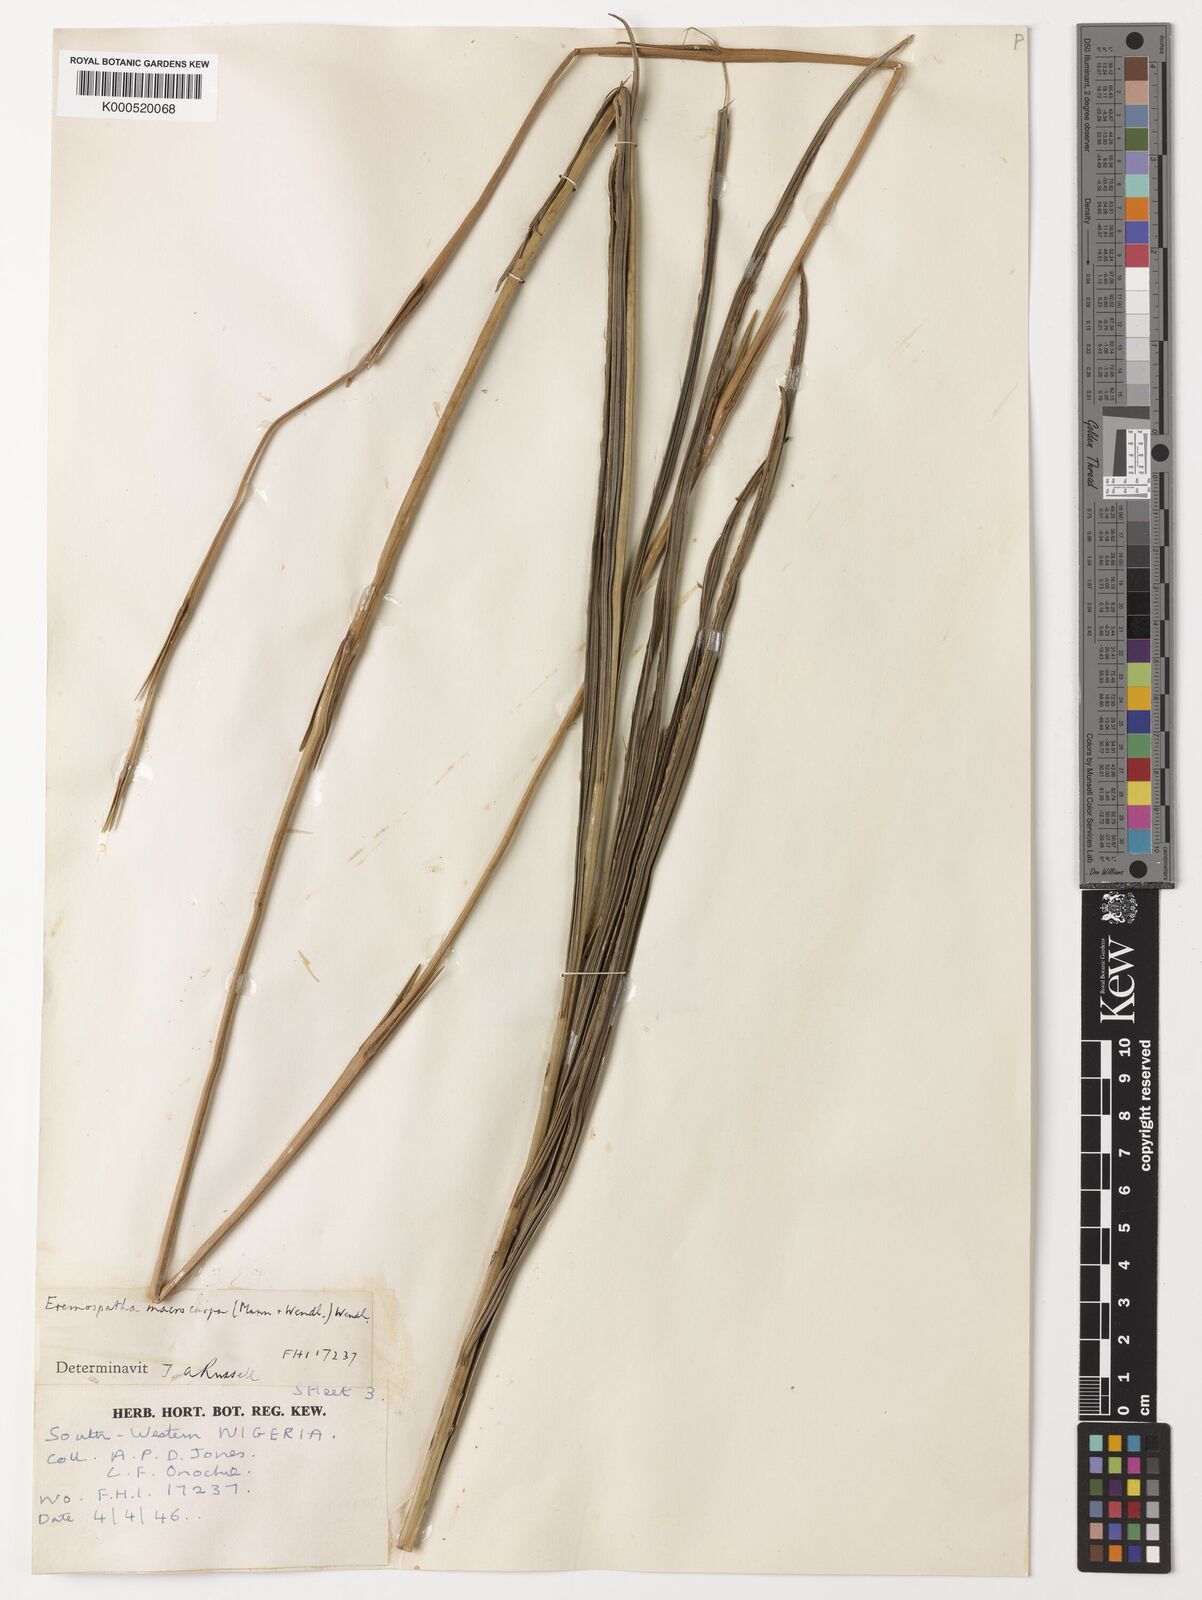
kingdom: Plantae
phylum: Tracheophyta
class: Liliopsida
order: Arecales
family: Arecaceae
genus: Eremospatha
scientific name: Eremospatha
